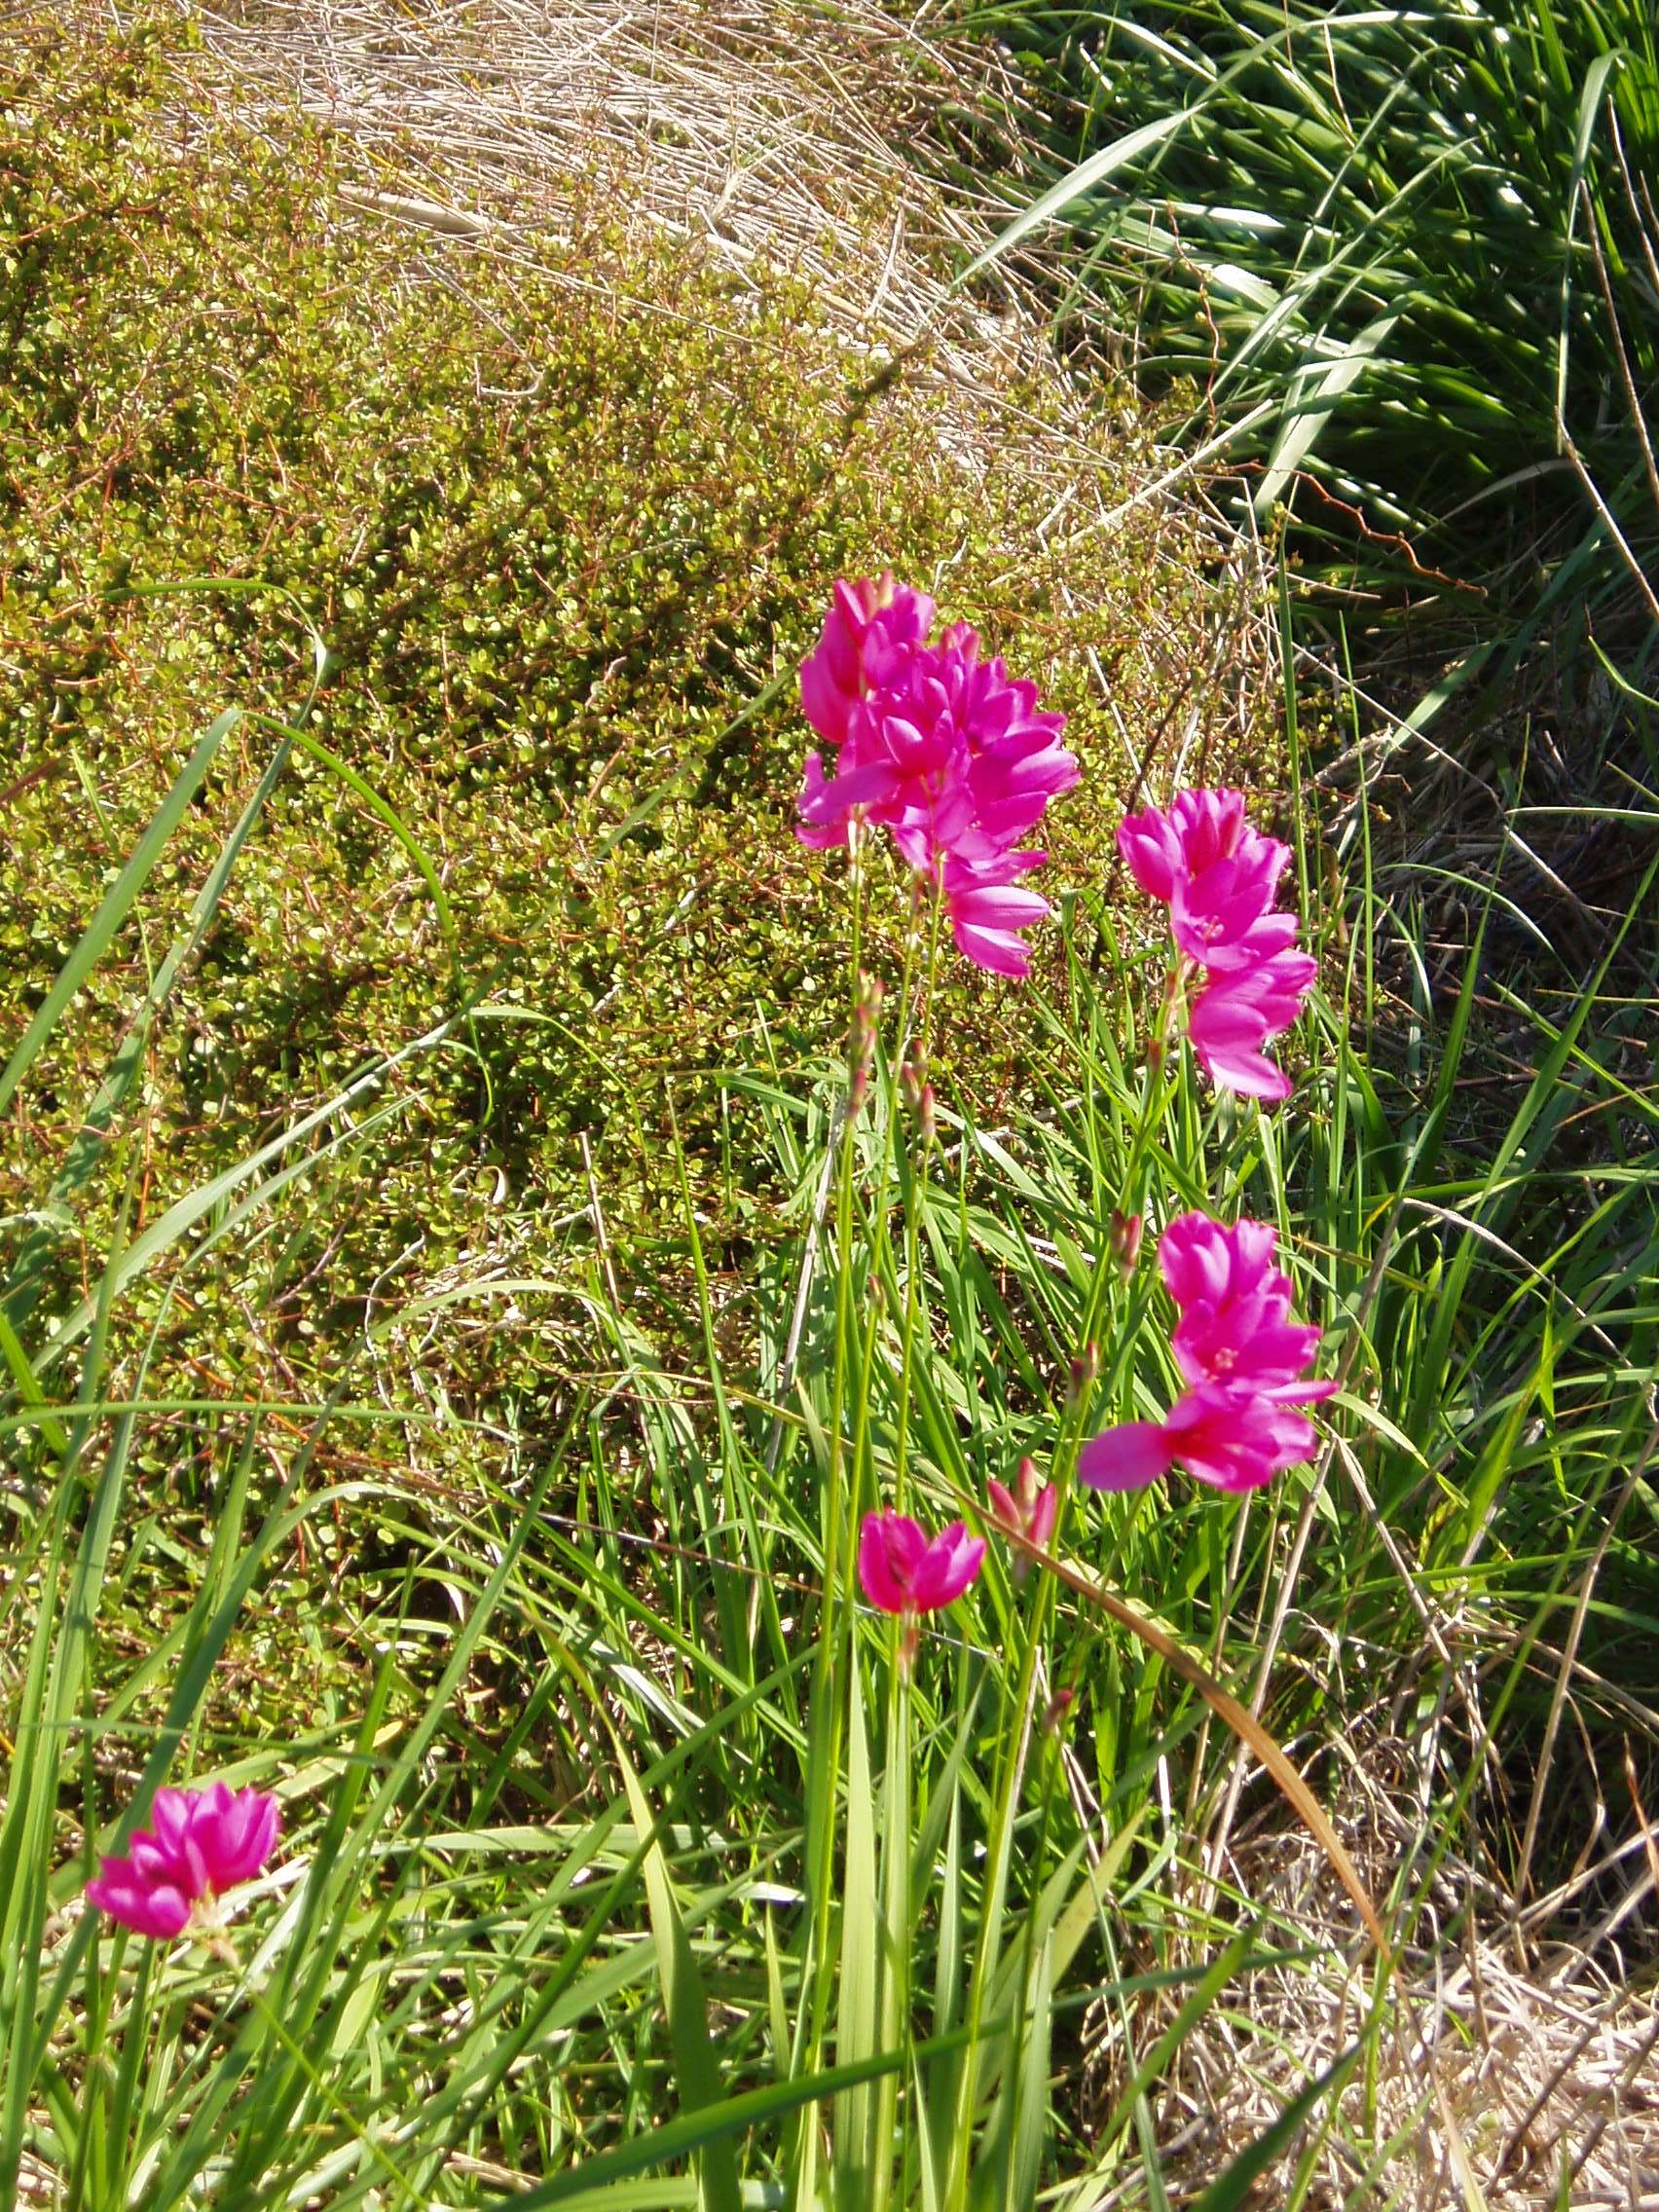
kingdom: Plantae
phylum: Tracheophyta
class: Liliopsida
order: Asparagales
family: Iridaceae
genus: Ixia
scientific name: Ixia maculata
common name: Spotted african cornlily
